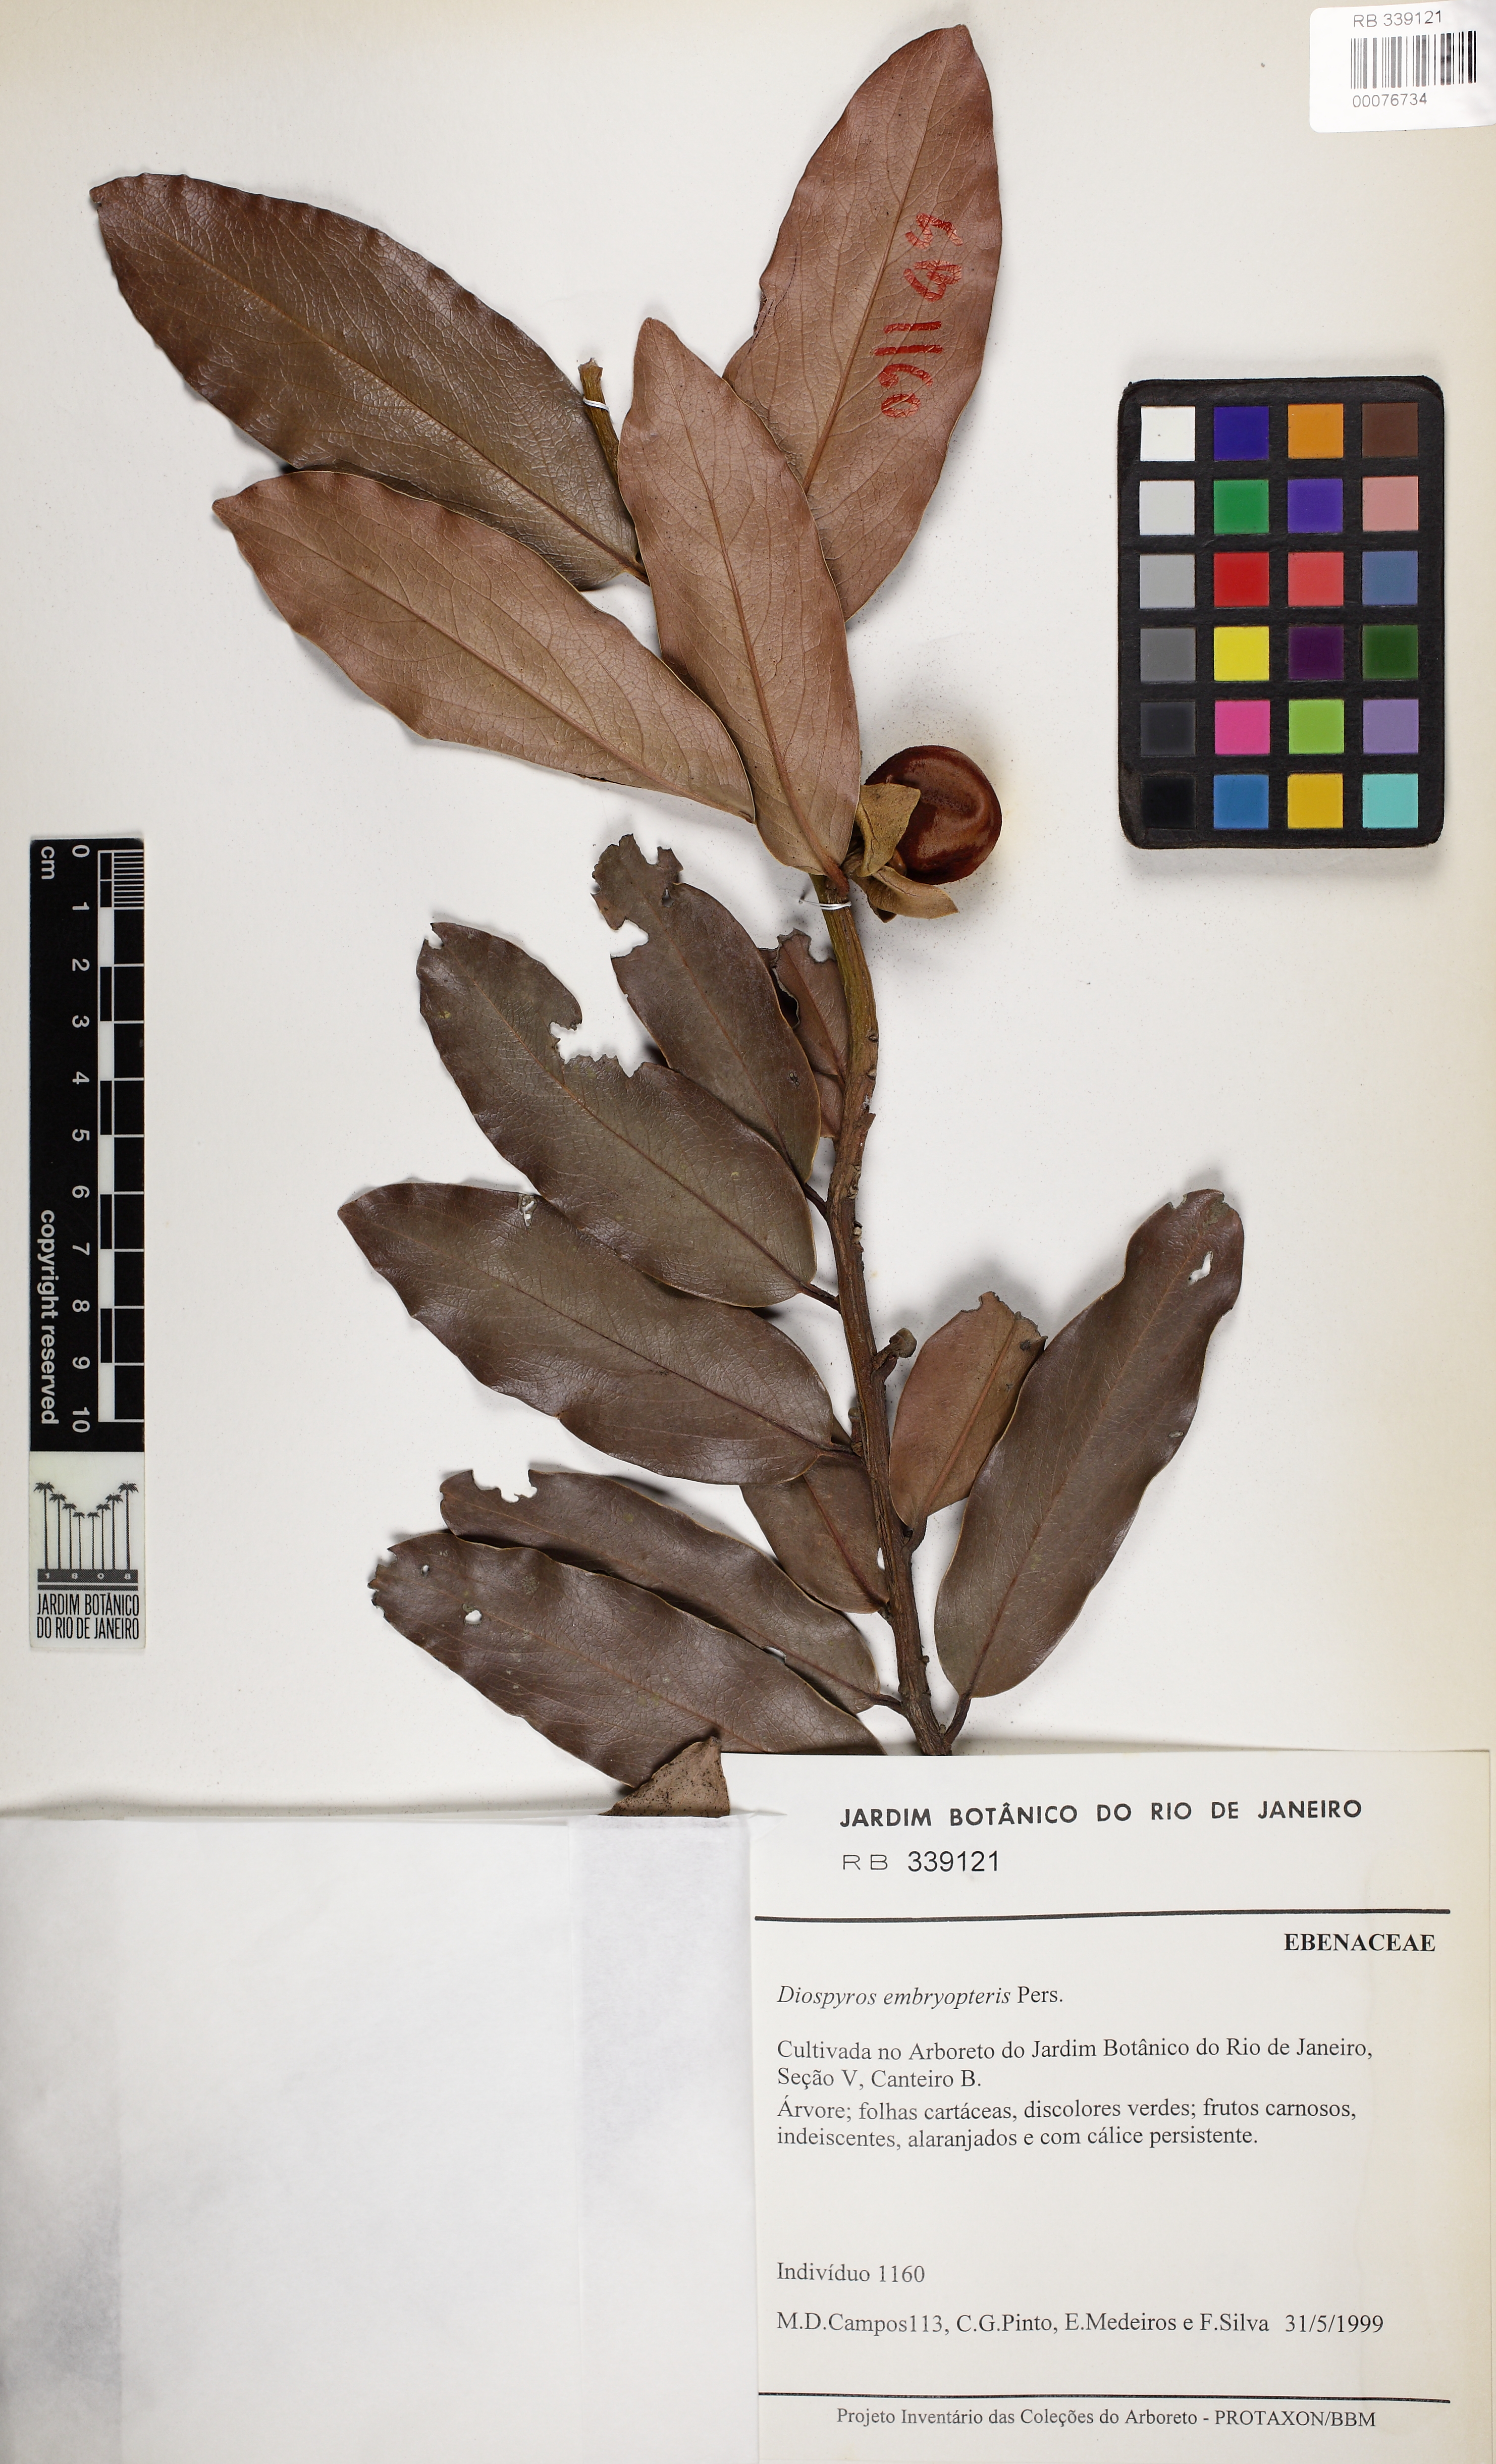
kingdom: Plantae
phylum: Tracheophyta
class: Magnoliopsida
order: Ericales
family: Ebenaceae
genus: Diospyros
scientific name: Diospyros malabarica
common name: Mountain ebony
